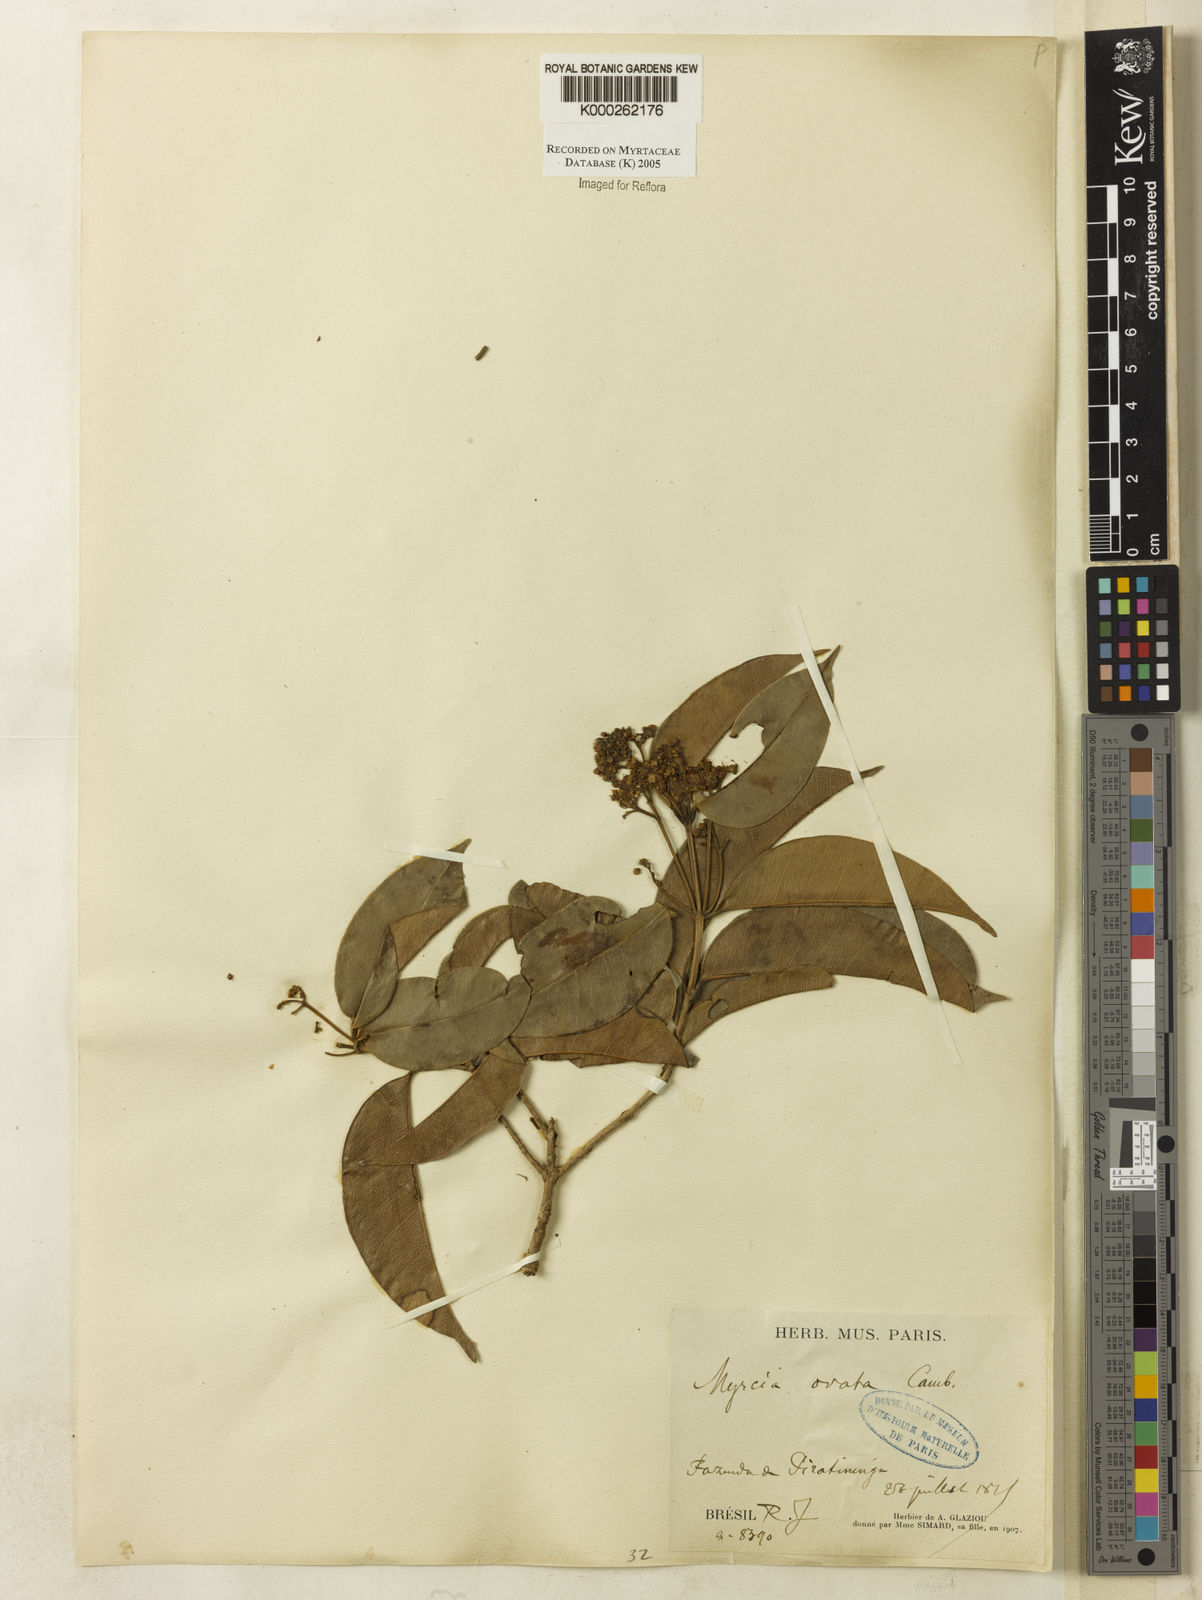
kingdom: Plantae
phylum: Tracheophyta
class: Magnoliopsida
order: Myrtales
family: Myrtaceae
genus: Myrcia
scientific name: Myrcia ovata
